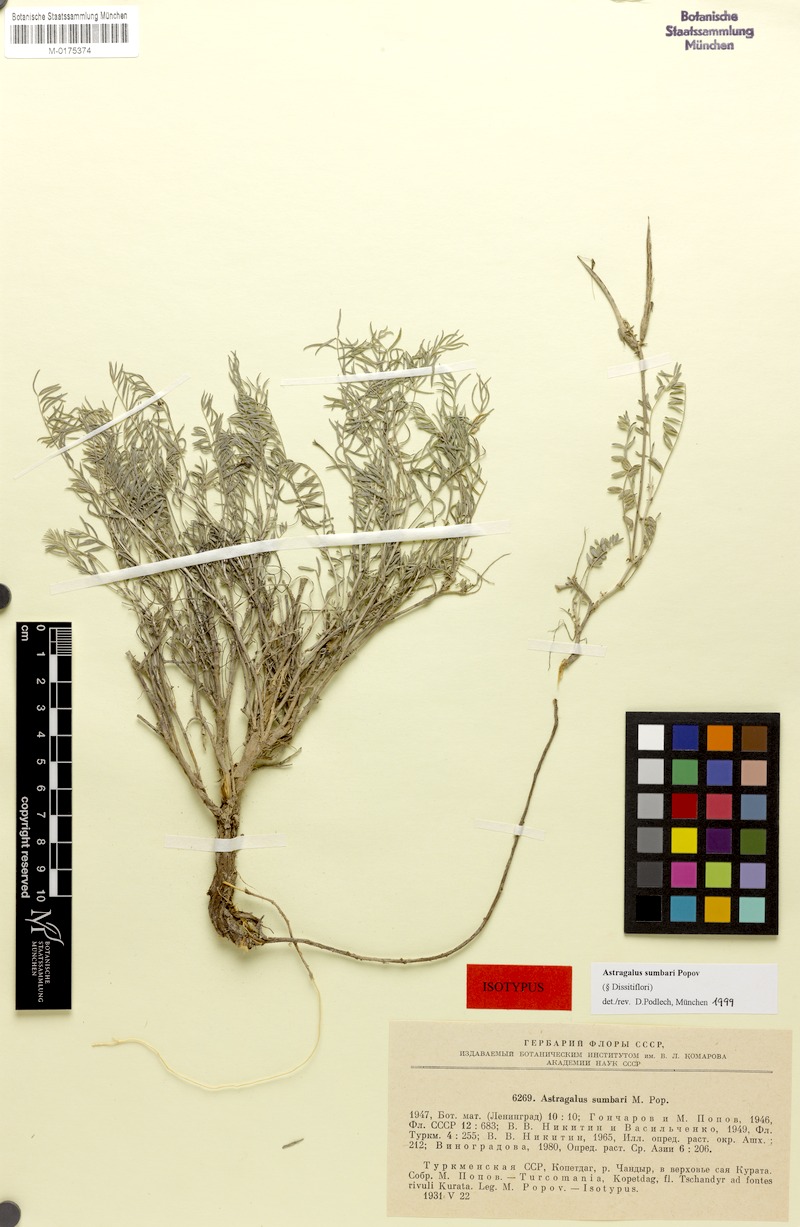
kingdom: Plantae
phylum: Tracheophyta
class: Magnoliopsida
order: Fabales
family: Fabaceae
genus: Astragalus
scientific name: Astragalus sumbari
